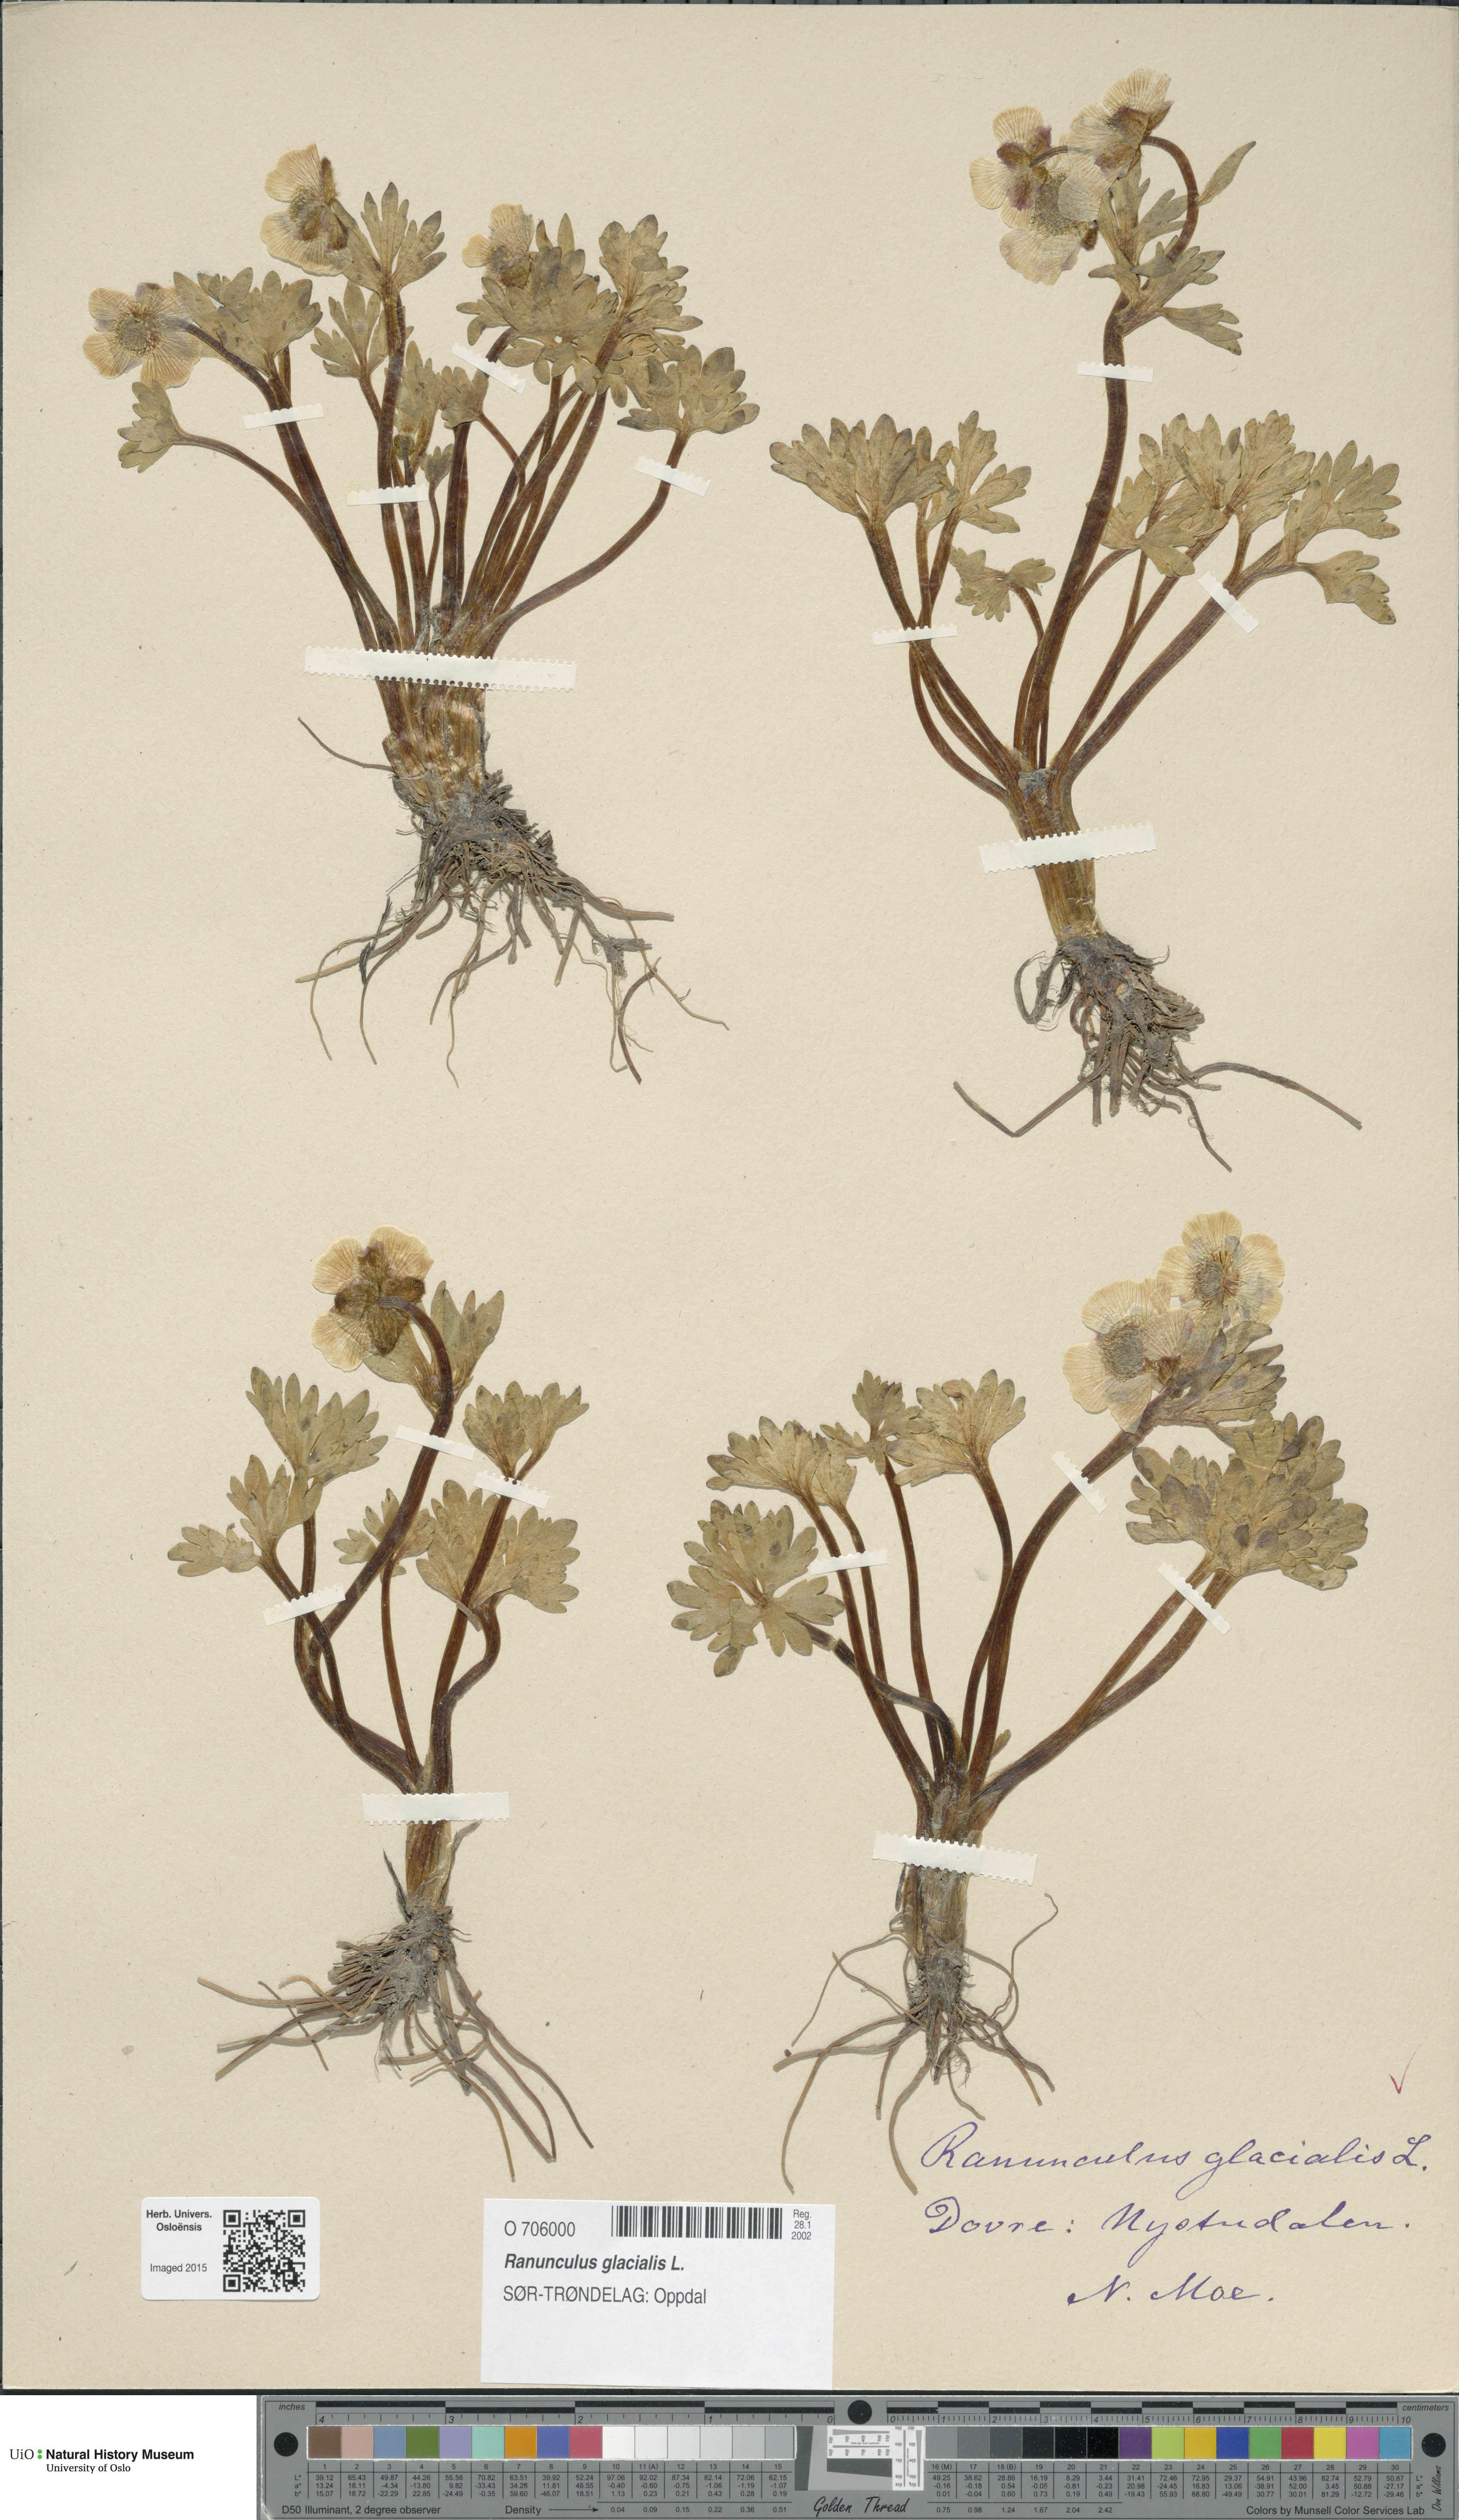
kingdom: Plantae
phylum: Tracheophyta
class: Magnoliopsida
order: Ranunculales
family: Ranunculaceae
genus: Ranunculus
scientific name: Ranunculus glacialis
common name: Glacier buttercup
